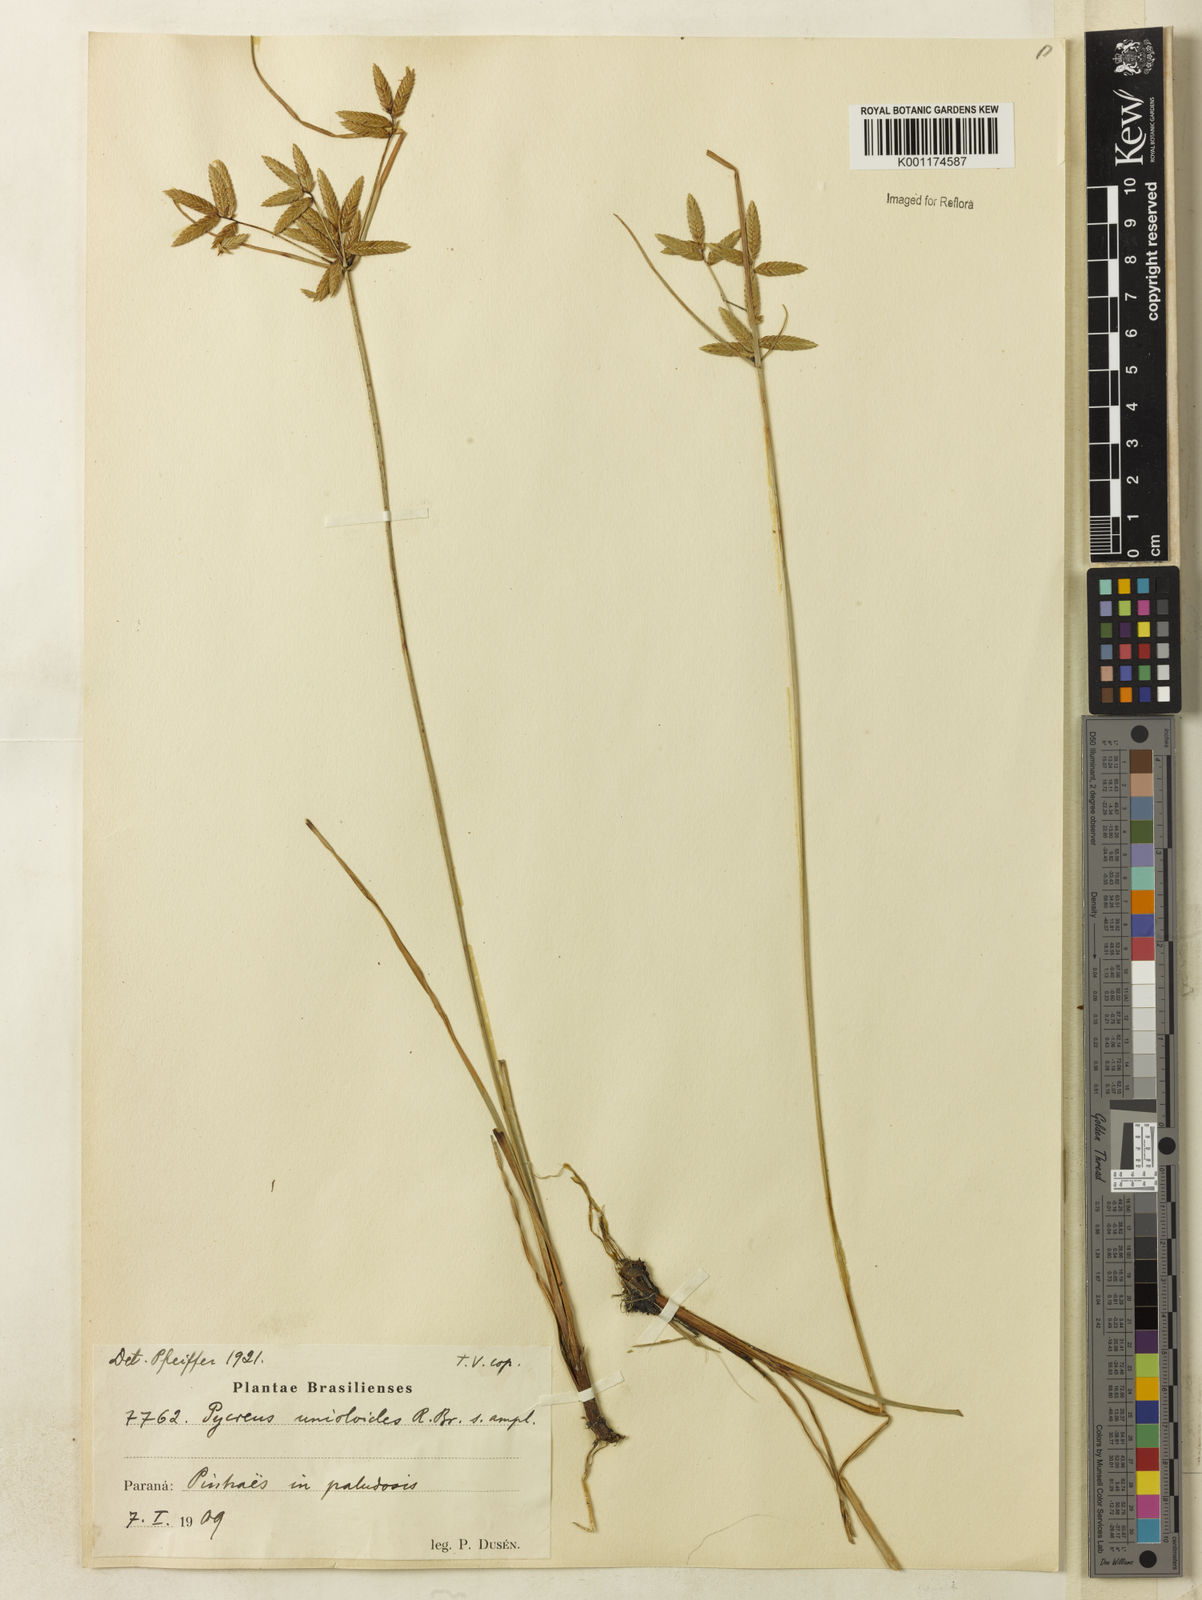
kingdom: Plantae
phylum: Tracheophyta
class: Liliopsida
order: Poales
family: Cyperaceae
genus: Cyperus
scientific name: Cyperus unioloides
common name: Uniola flatsedge
